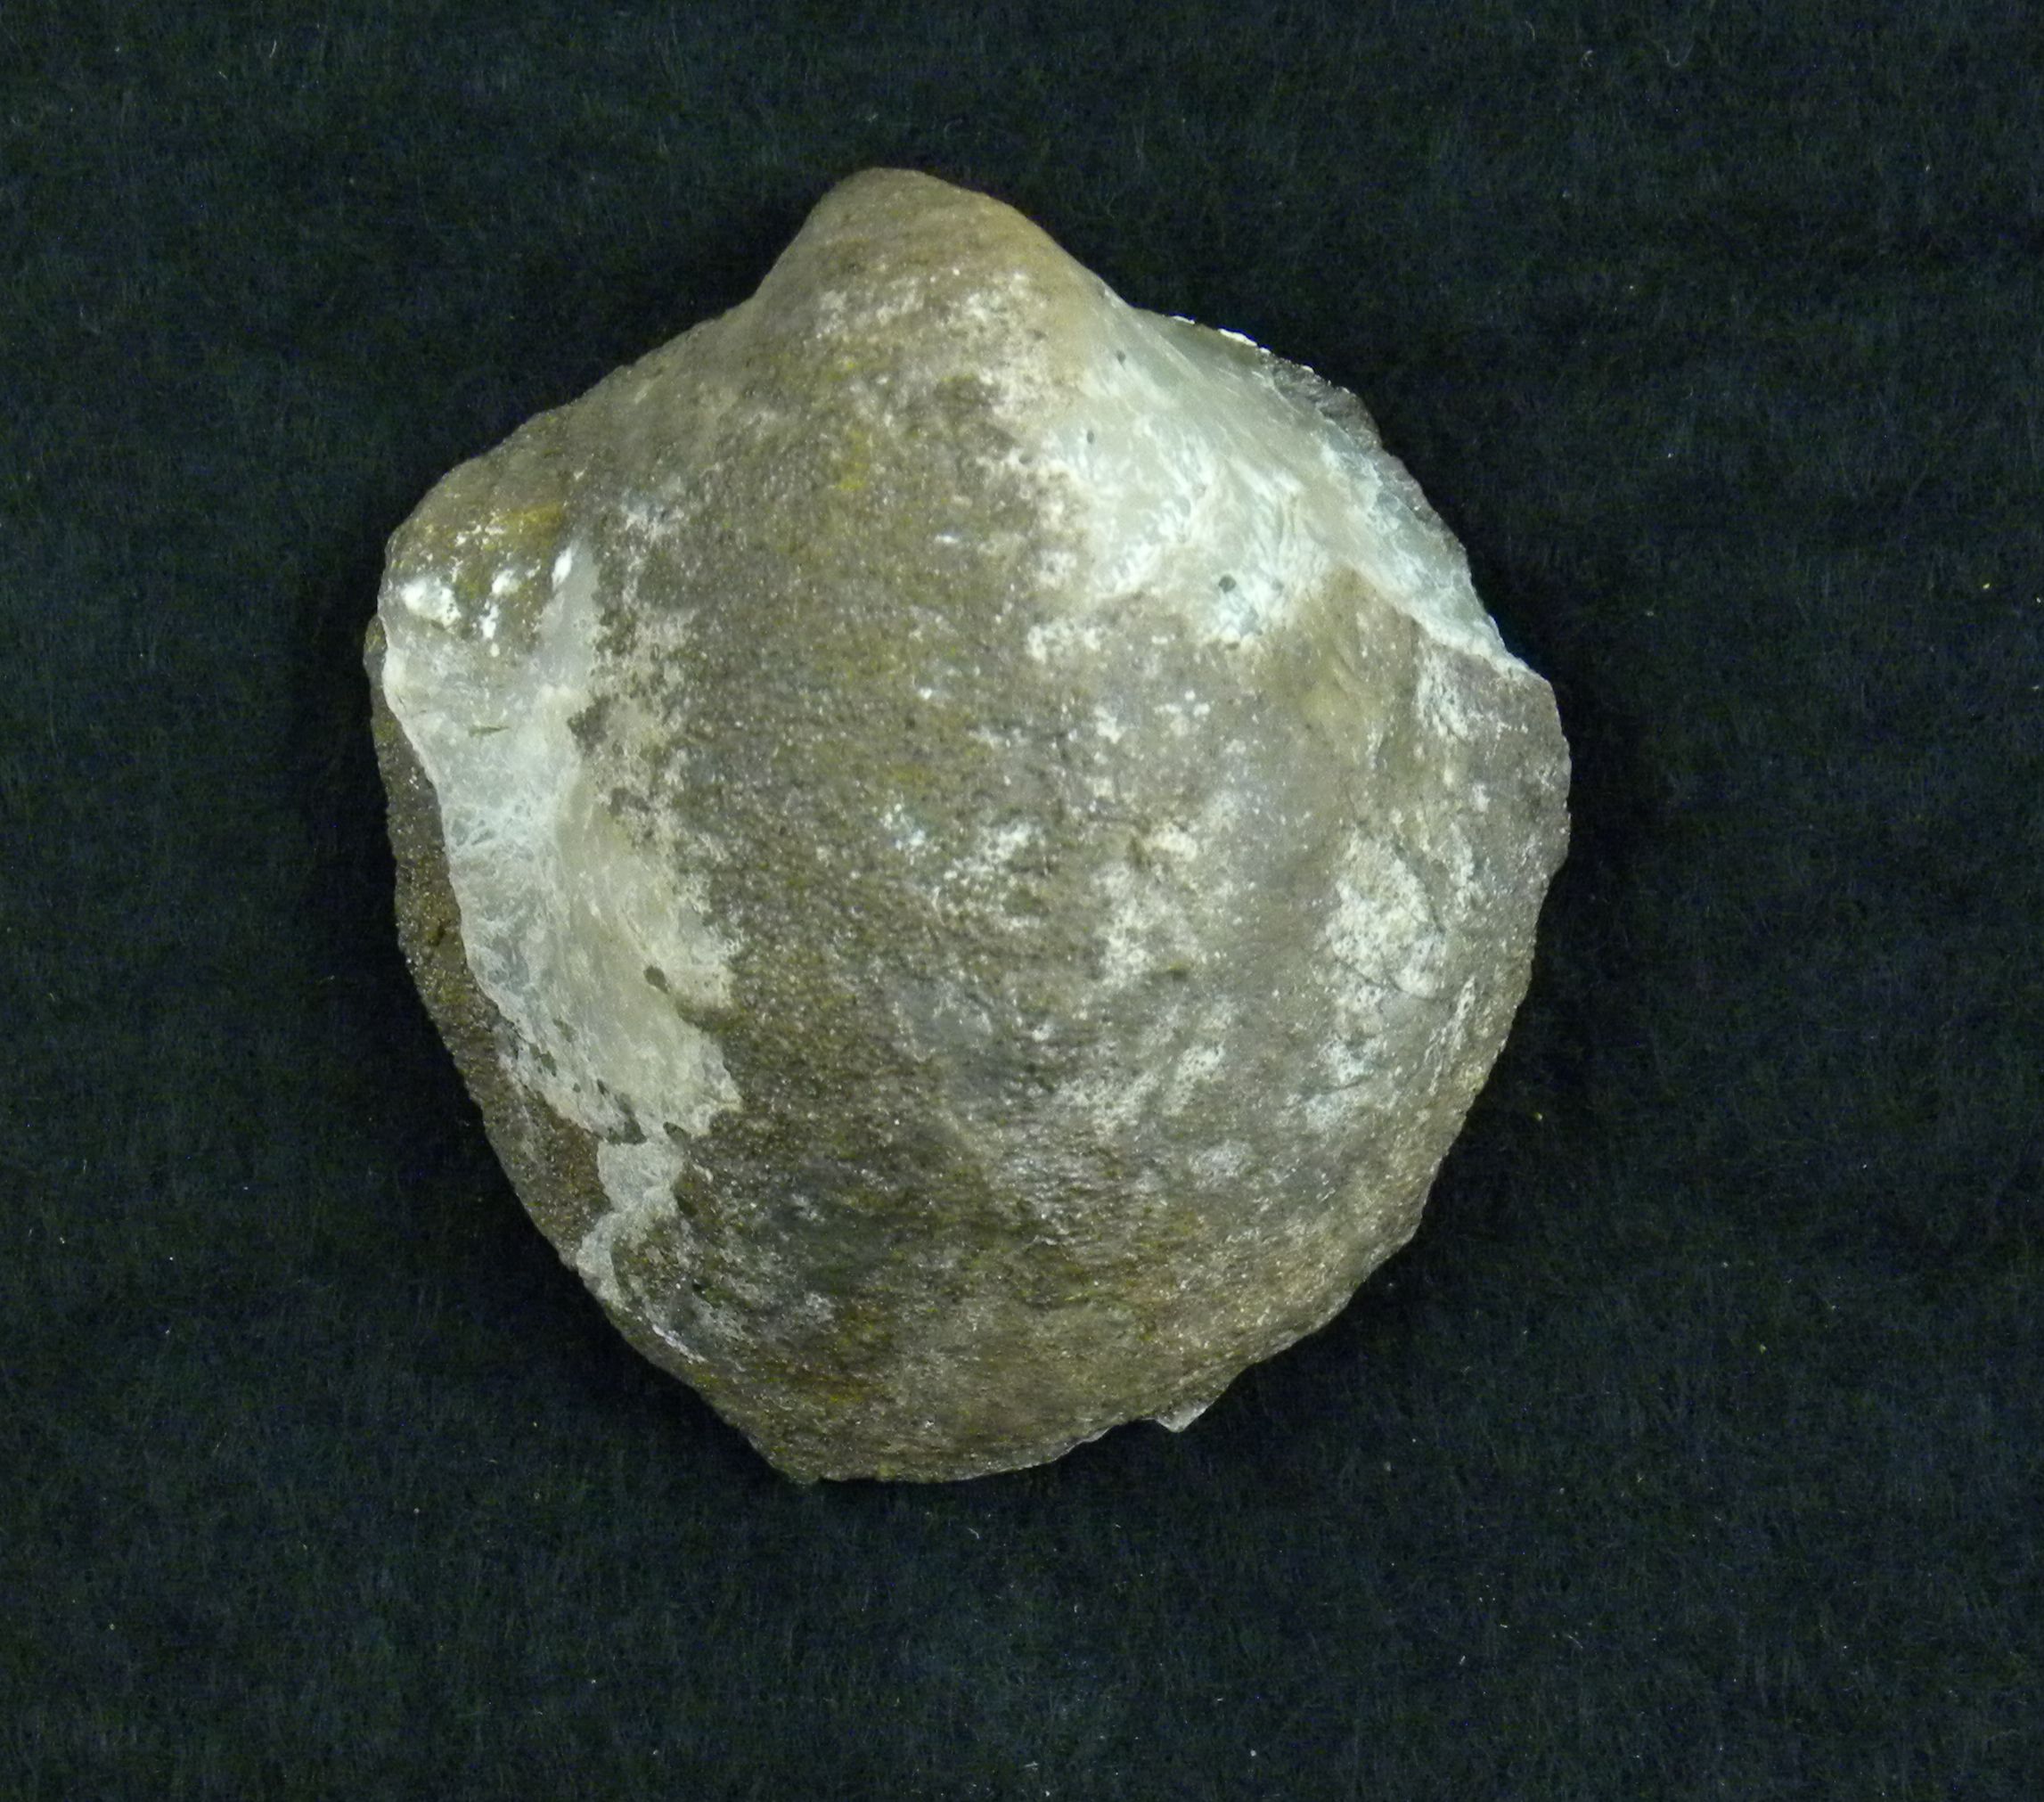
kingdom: Animalia
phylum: Mollusca
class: Bivalvia
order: Ostreida
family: Gryphaeidae
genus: Gryphaea
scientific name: Gryphaea
